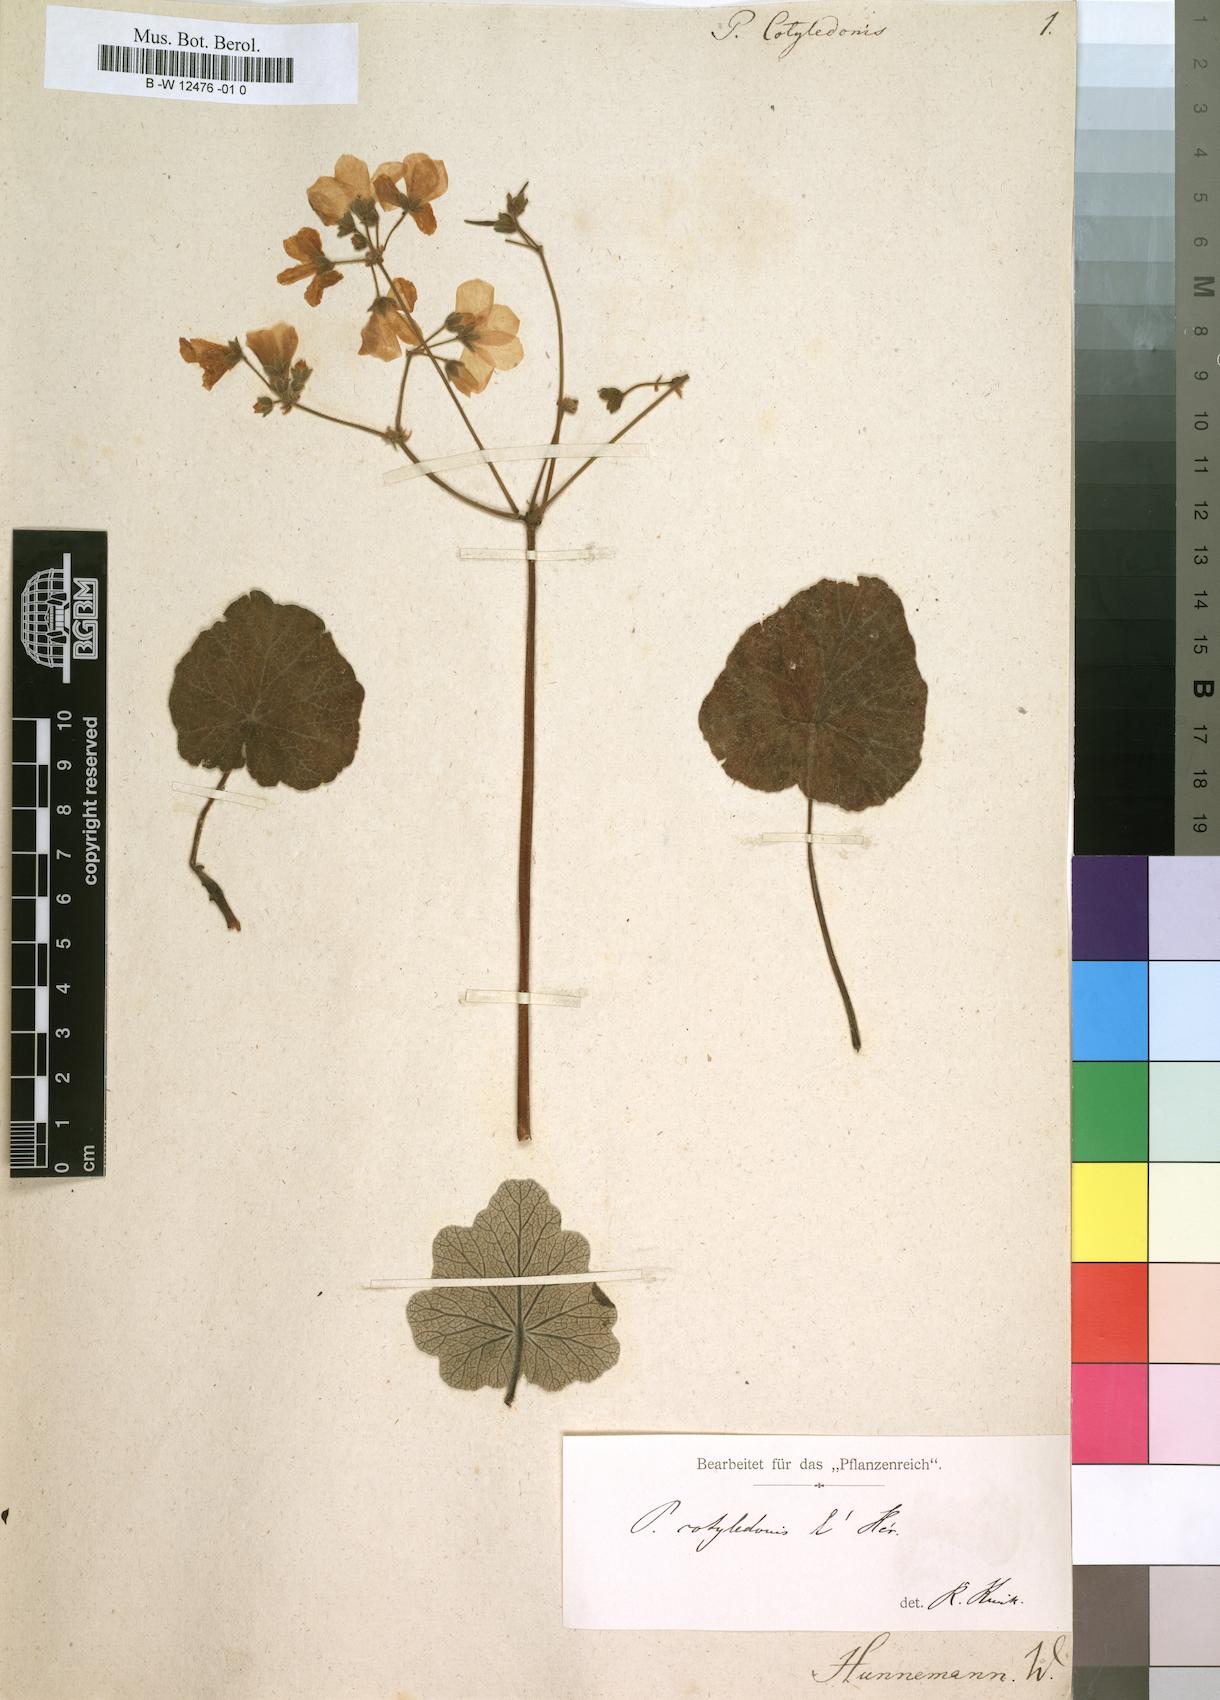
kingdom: Plantae
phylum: Tracheophyta
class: Magnoliopsida
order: Geraniales
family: Geraniaceae
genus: Pelargonium
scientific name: Pelargonium cotyledonis
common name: Old father live forever
